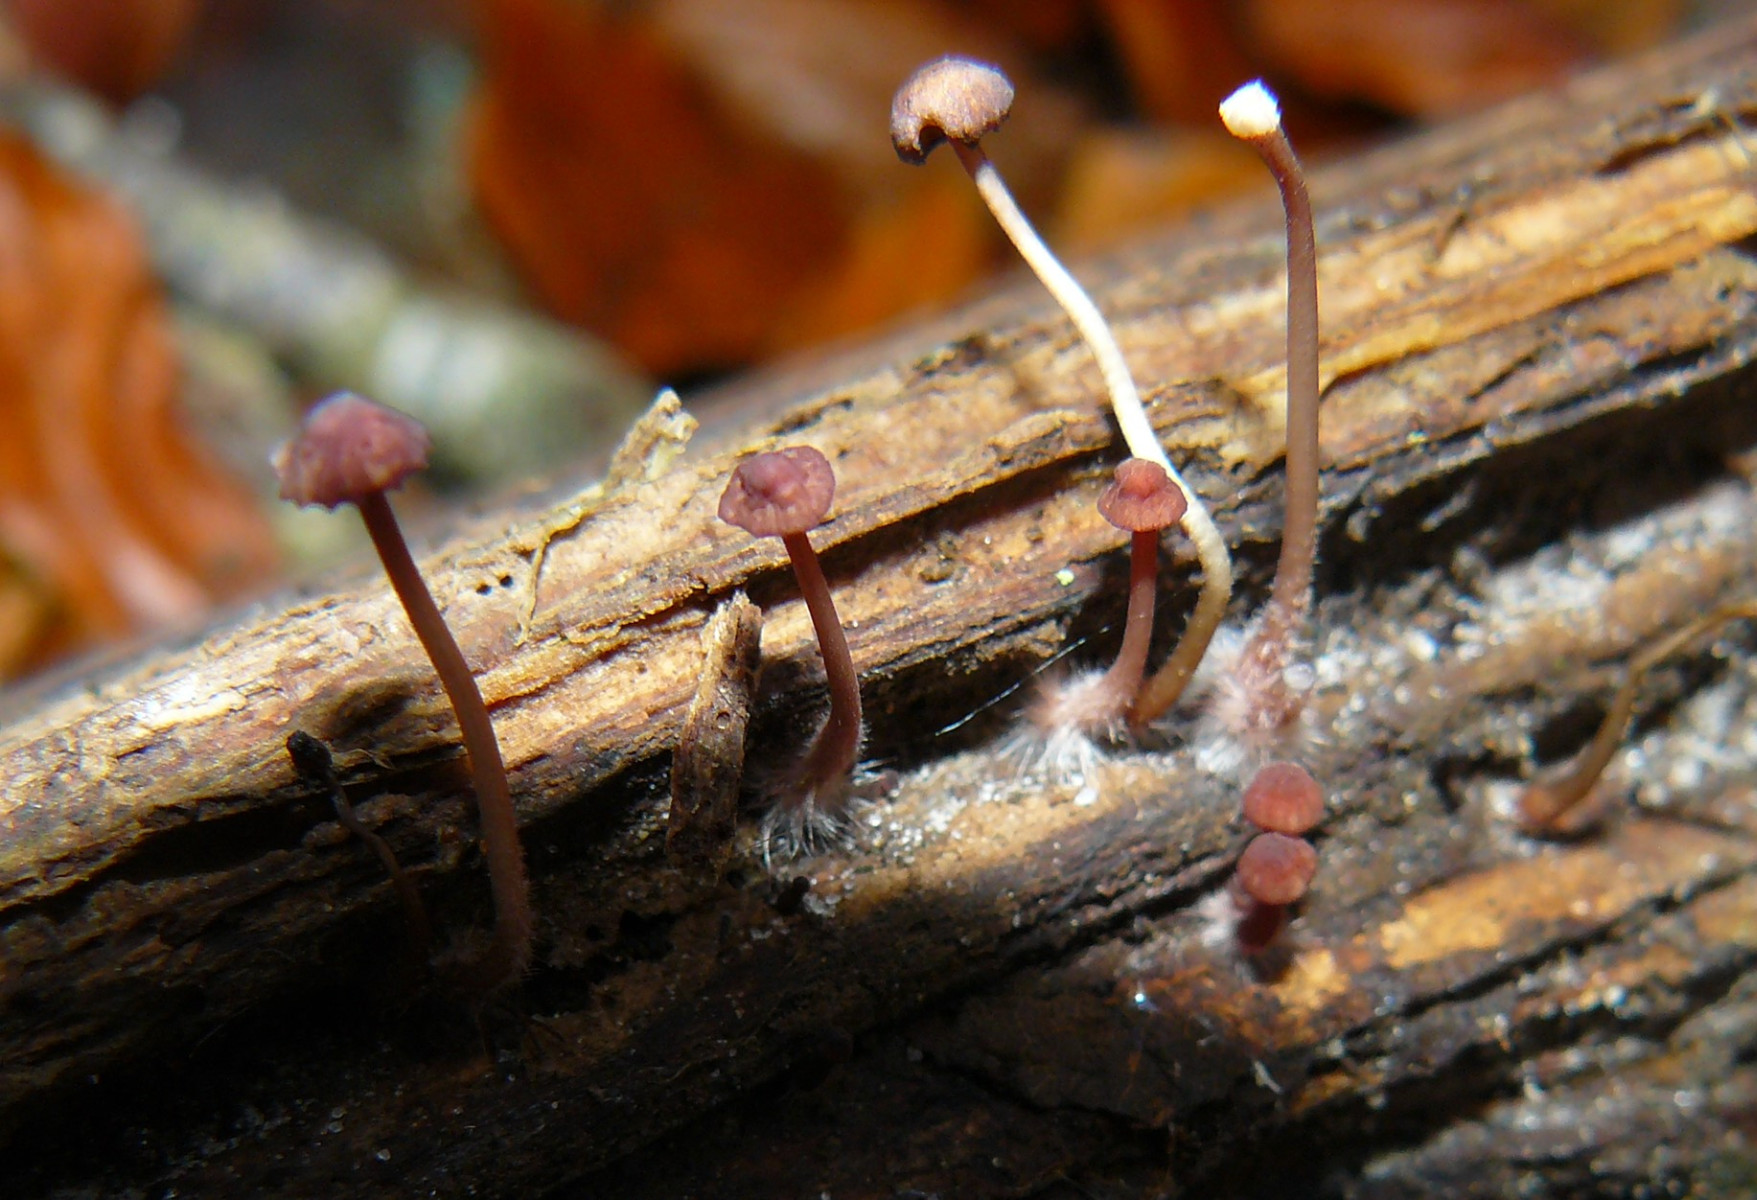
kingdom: Fungi
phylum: Basidiomycota
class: Agaricomycetes
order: Agaricales
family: Mycenaceae
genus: Mycena
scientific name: Mycena sanguinolenta
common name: rødmælket huesvamp
